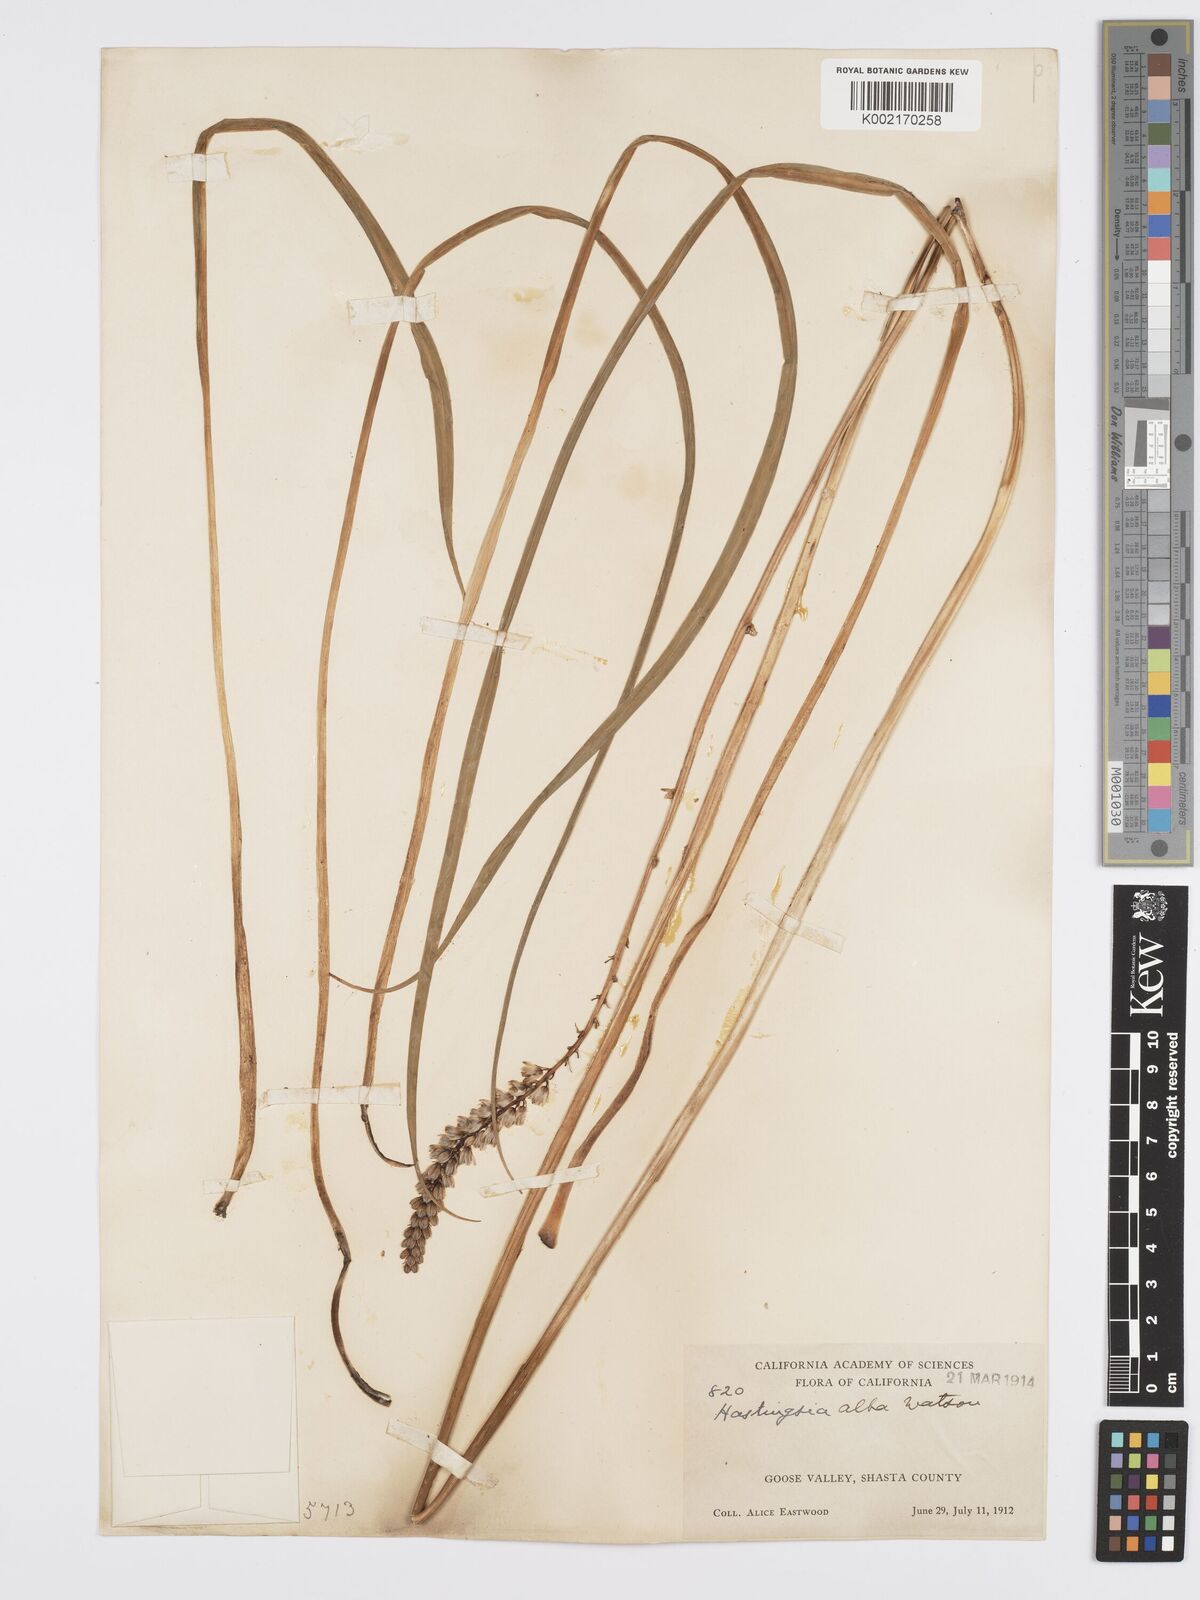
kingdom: Plantae
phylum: Tracheophyta
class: Liliopsida
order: Asparagales
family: Asparagaceae
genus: Hastingsia
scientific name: Hastingsia alba
